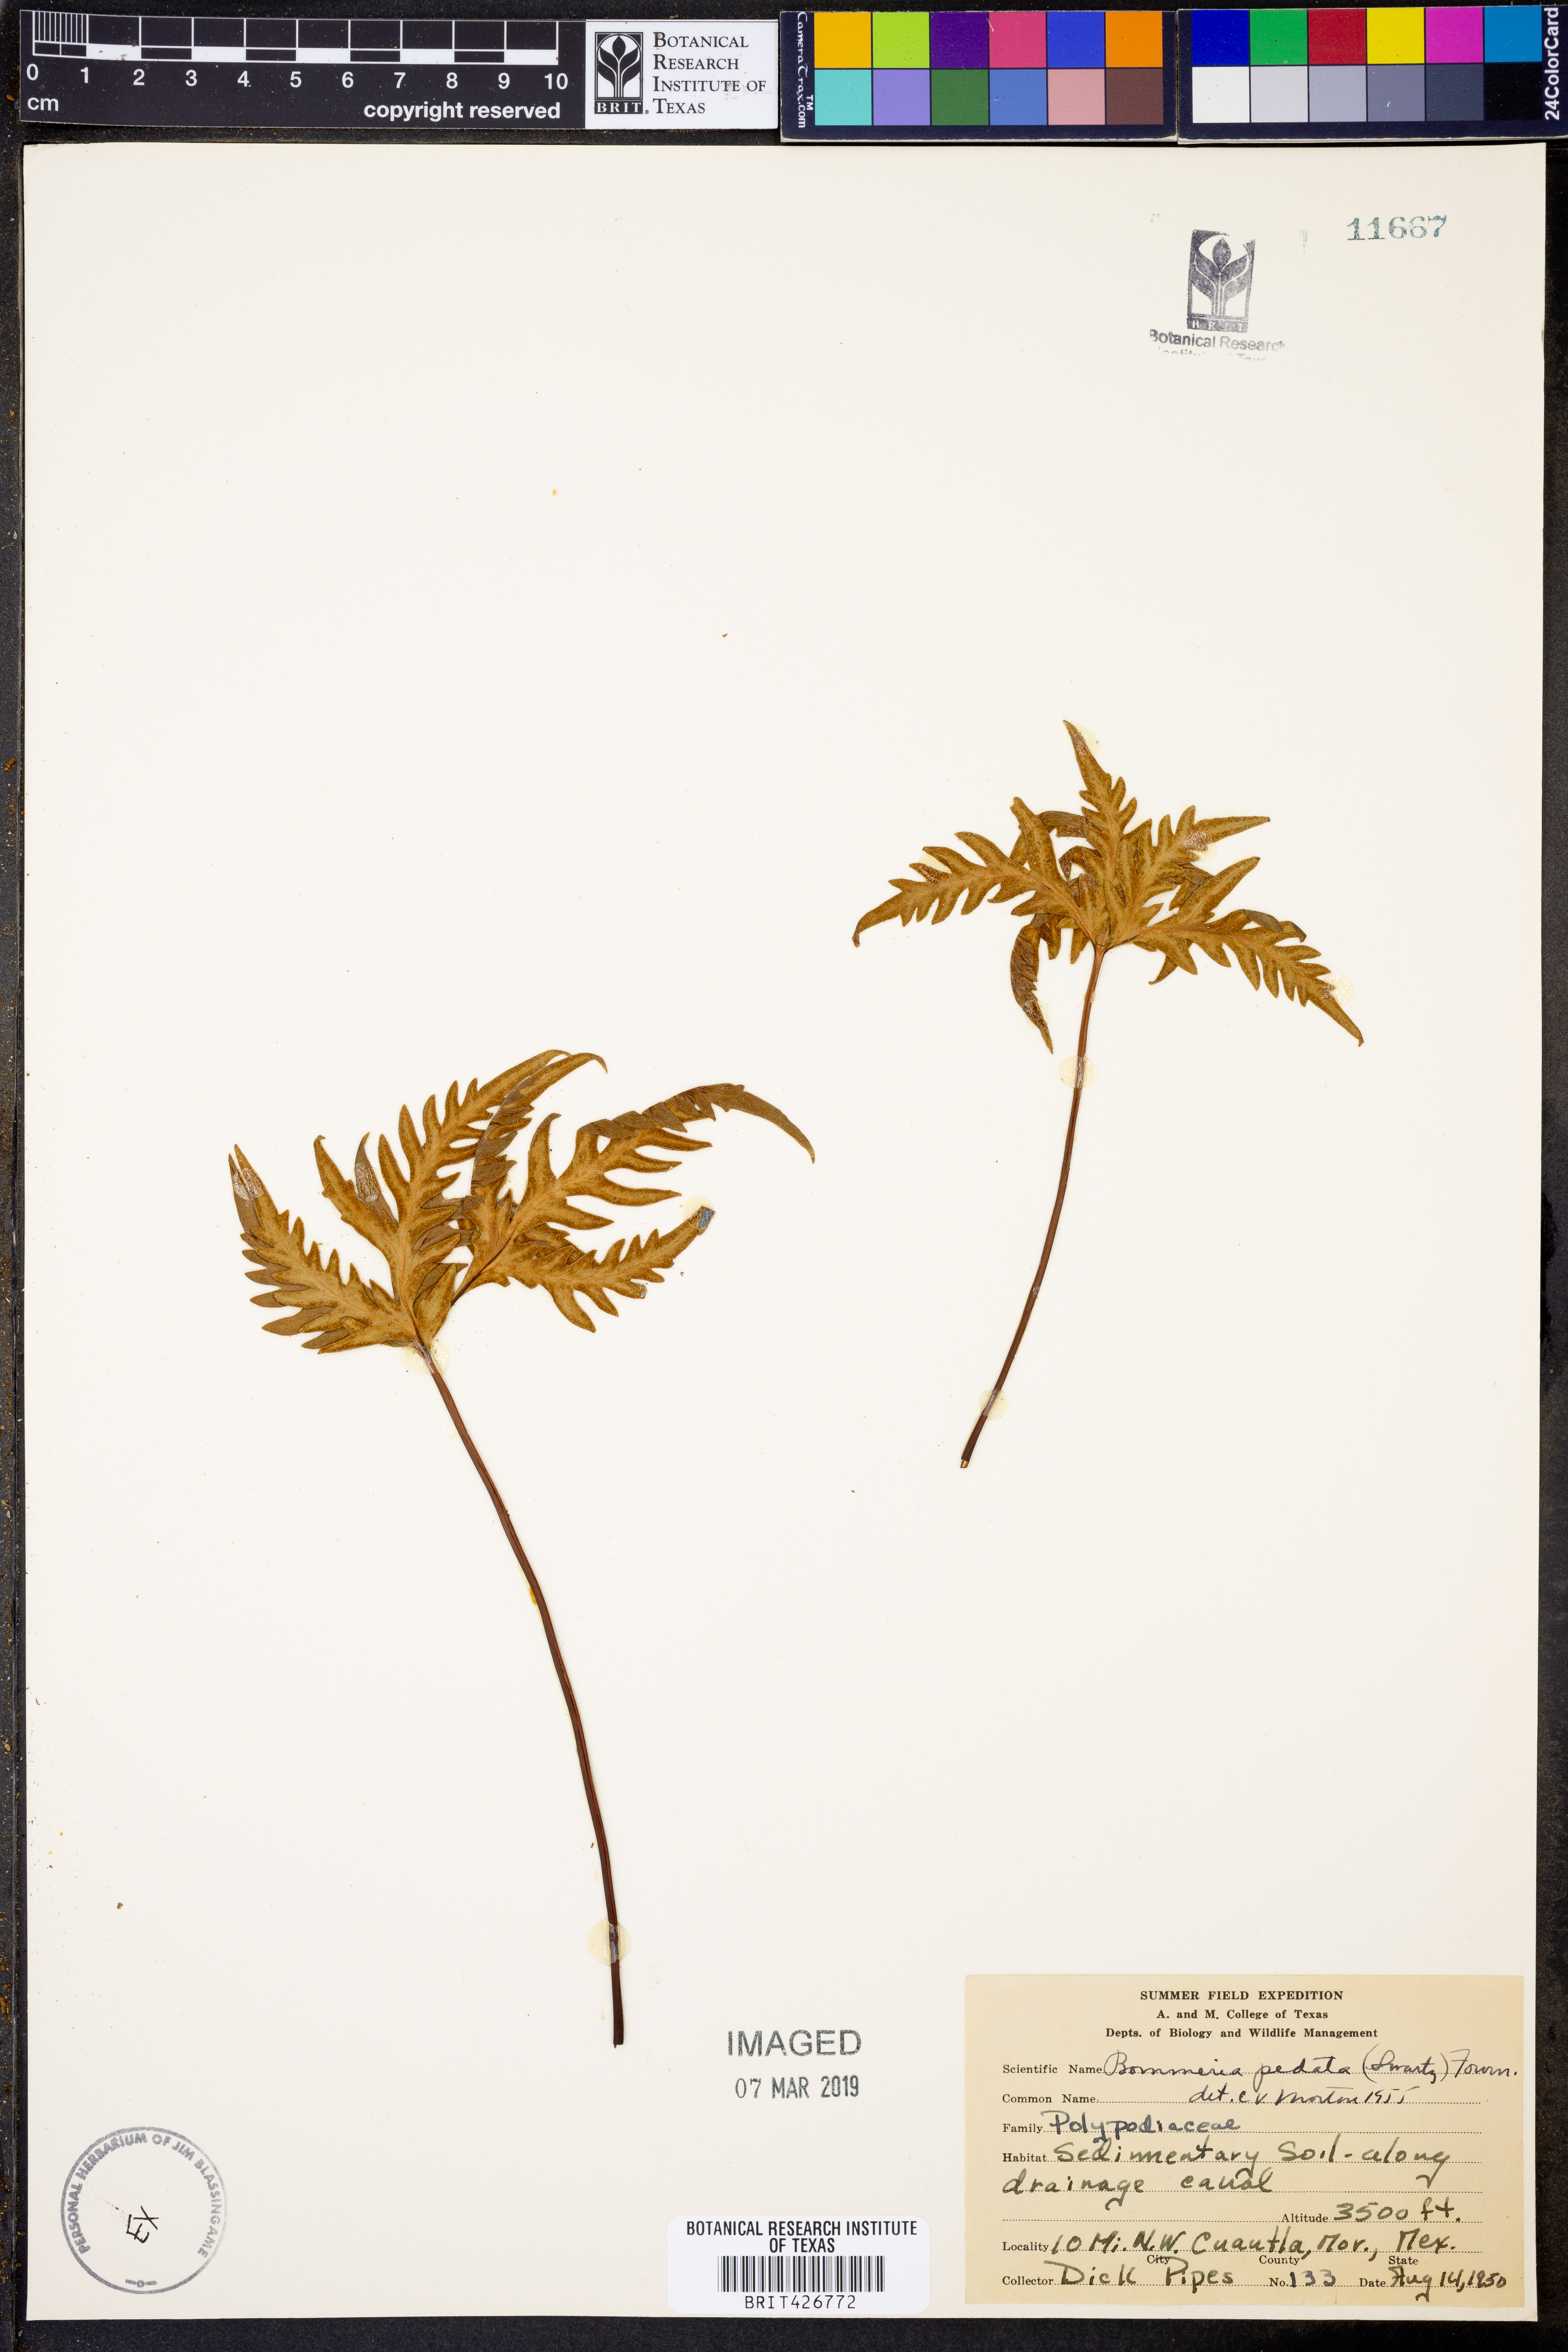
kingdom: Plantae
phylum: Tracheophyta
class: Polypodiopsida
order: Polypodiales
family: Pteridaceae
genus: Bommeria
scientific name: Bommeria pedata
